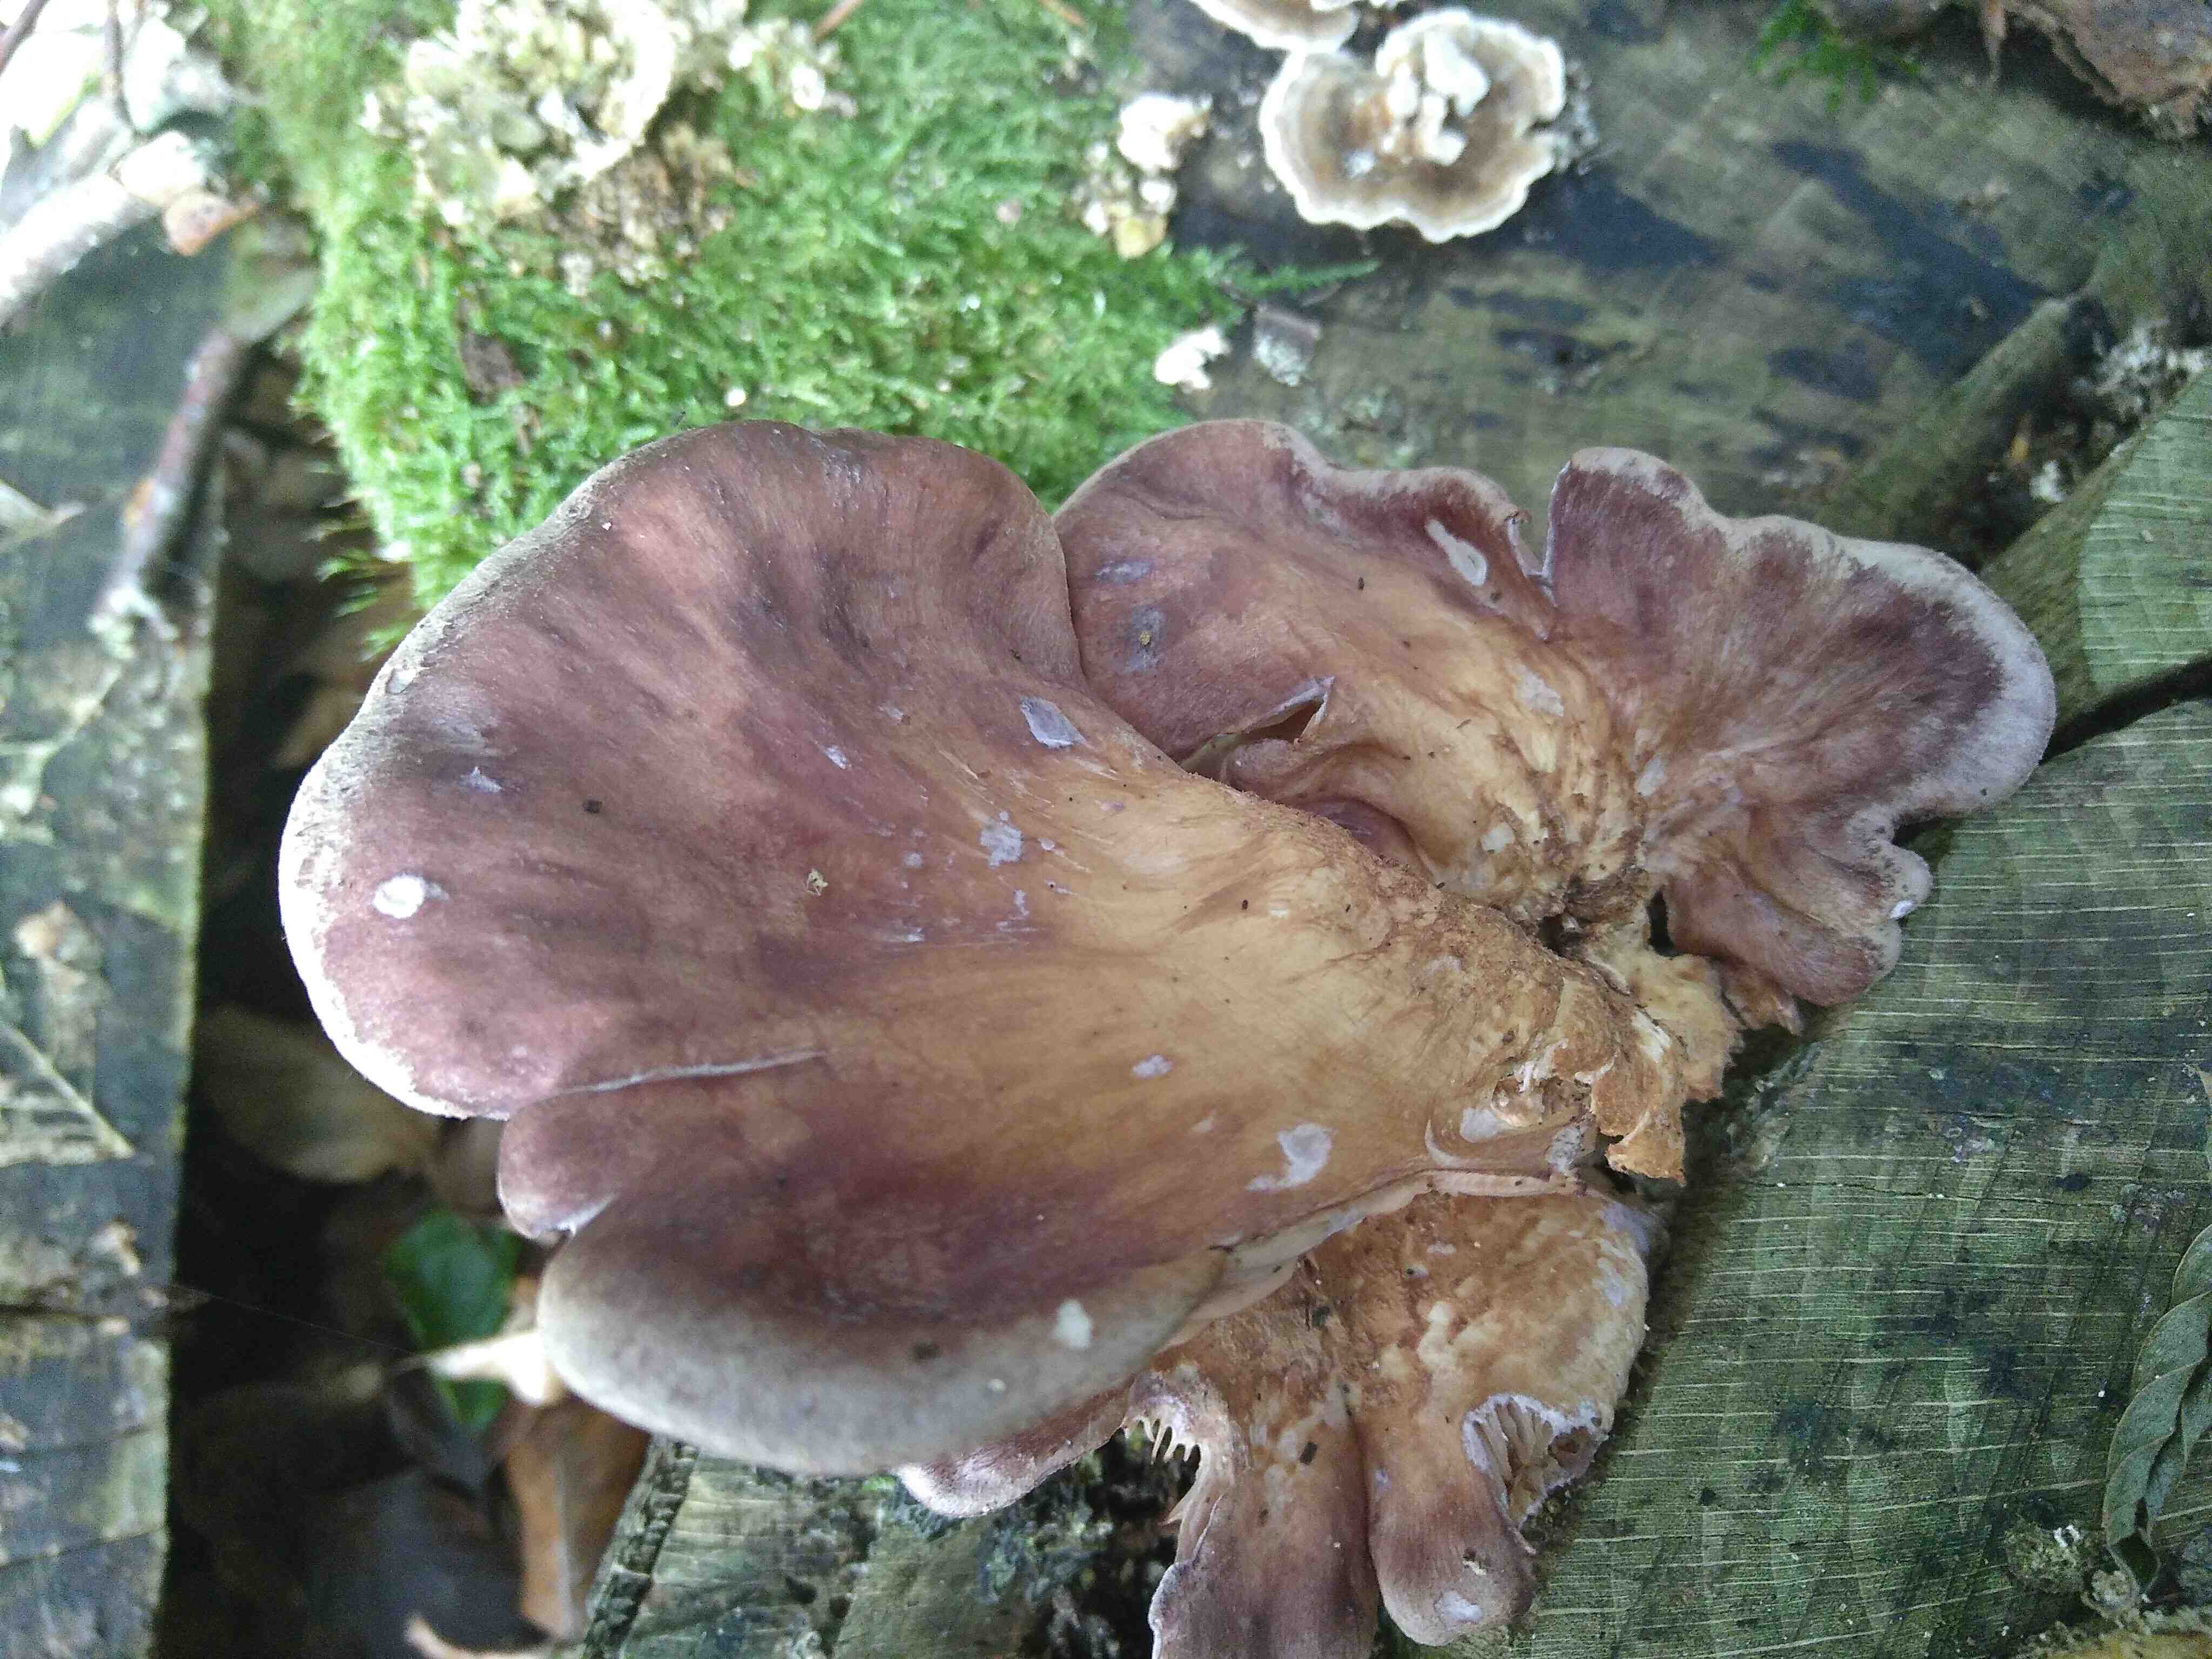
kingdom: Fungi
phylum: Basidiomycota
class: Agaricomycetes
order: Polyporales
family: Panaceae
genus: Panus
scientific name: Panus conchatus
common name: filtstokket læderhat
